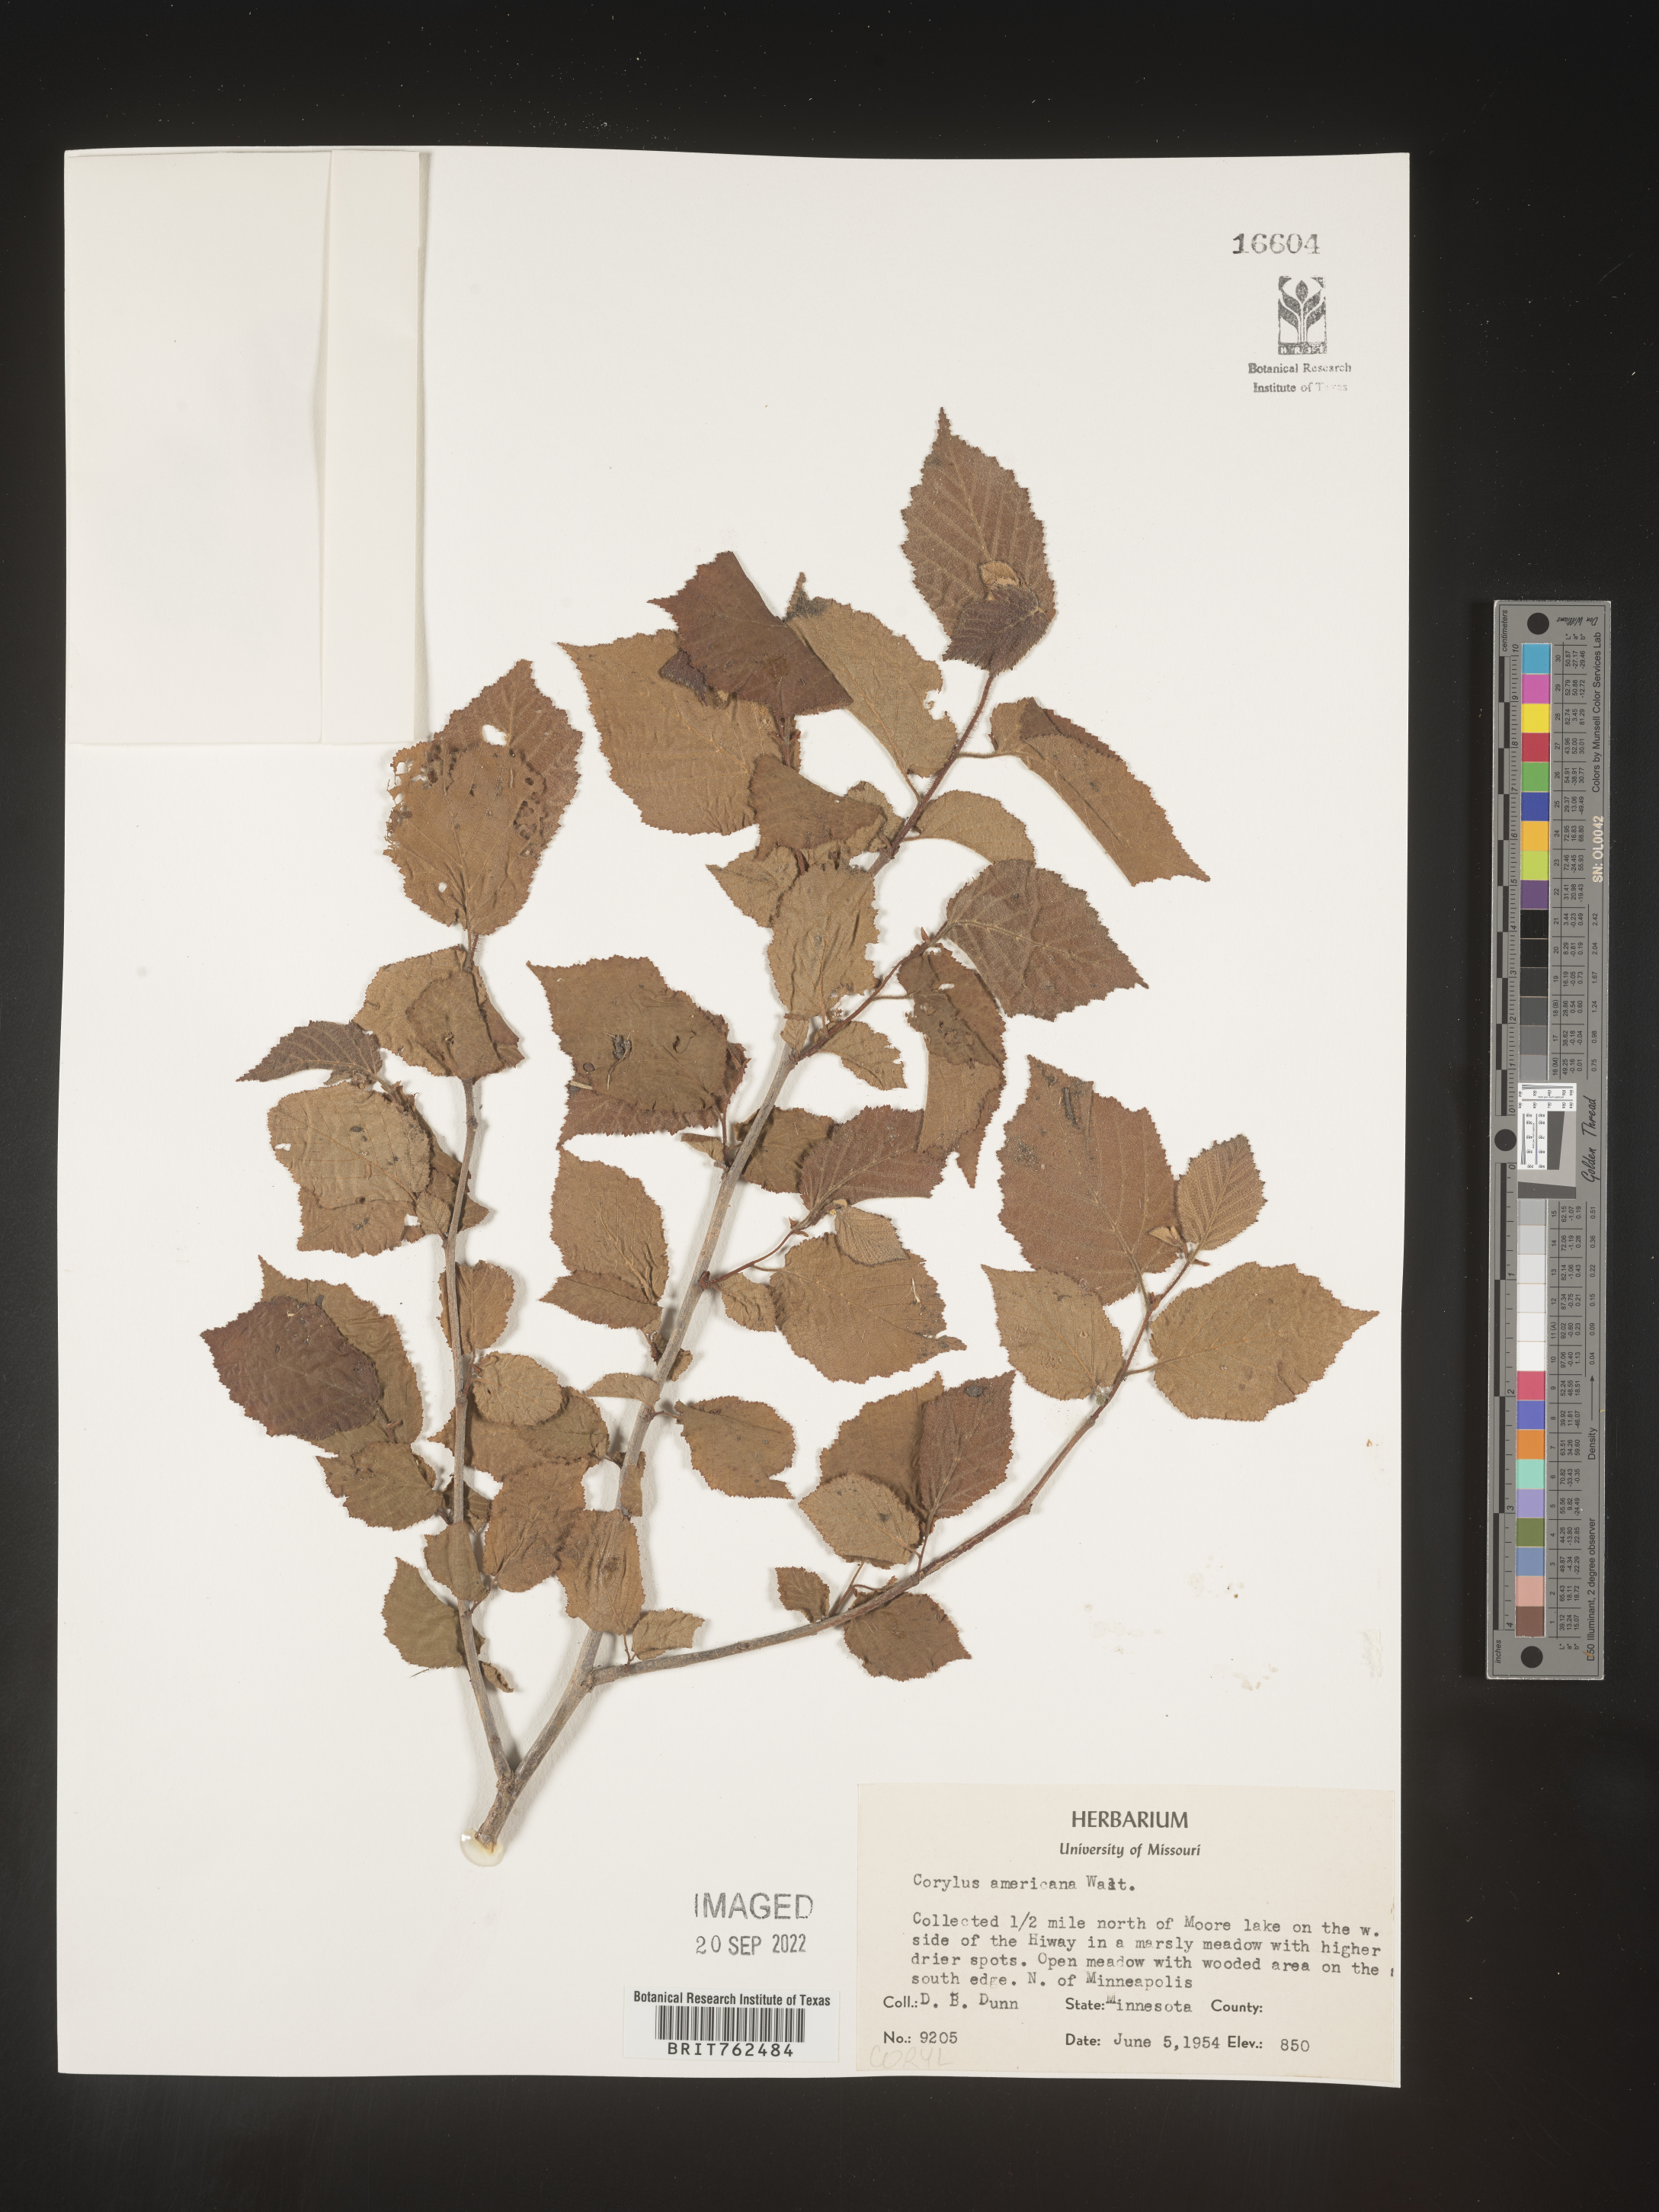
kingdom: Plantae
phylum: Tracheophyta
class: Magnoliopsida
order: Fagales
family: Betulaceae
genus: Corylus
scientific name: Corylus americana
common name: American hazel
